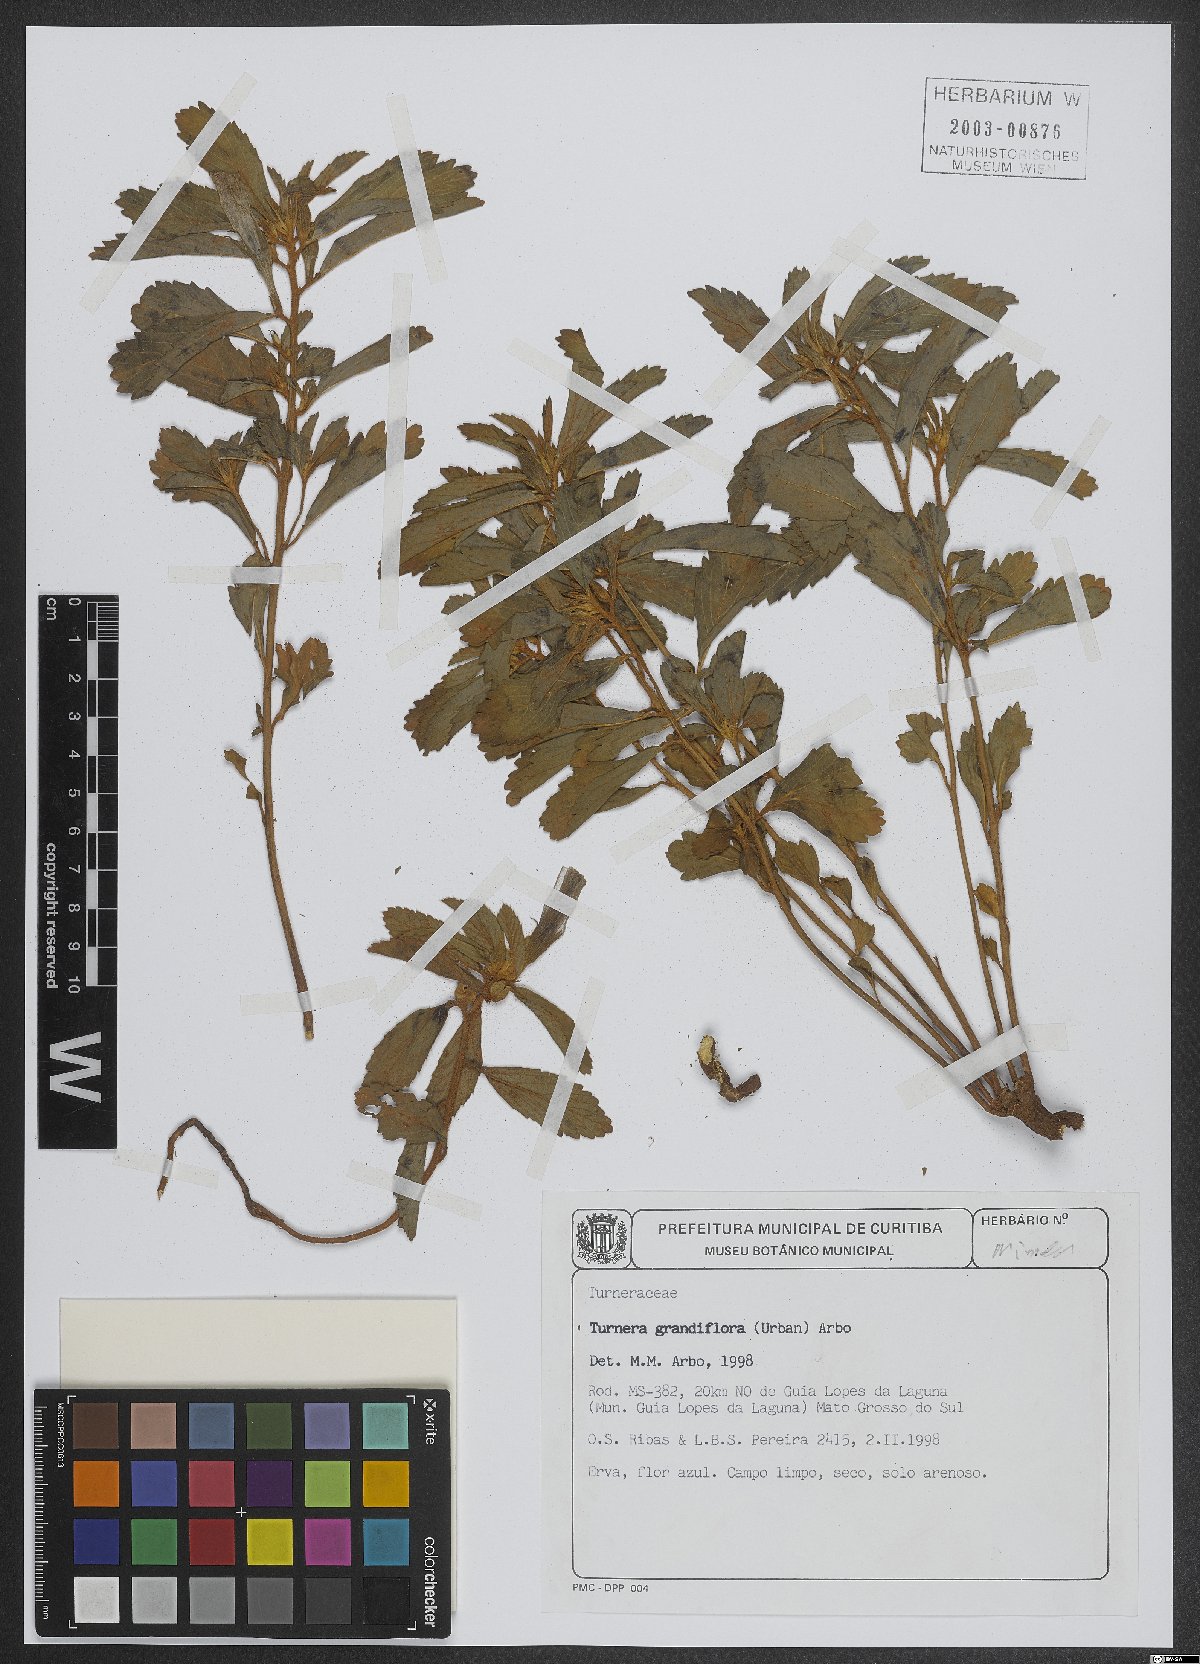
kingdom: Plantae
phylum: Tracheophyta
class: Magnoliopsida
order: Malpighiales
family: Turneraceae
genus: Turnera
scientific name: Turnera grandiflora
